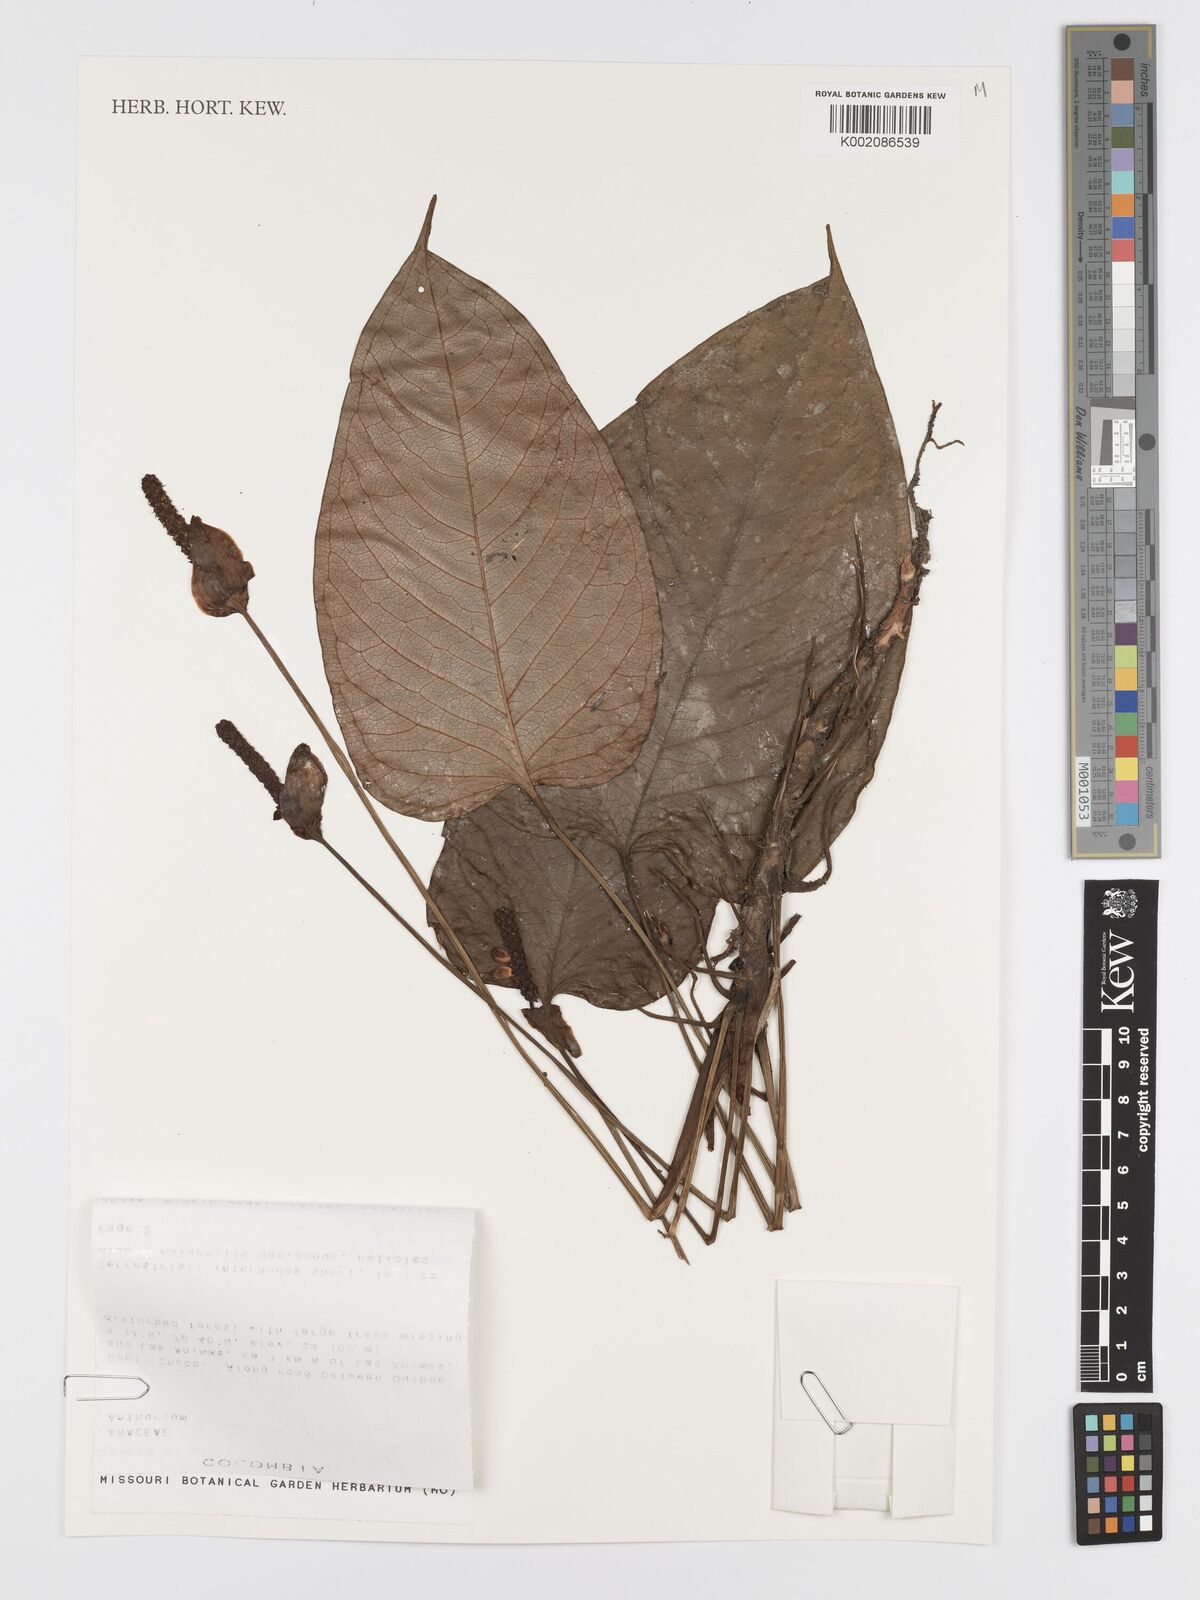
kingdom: Plantae
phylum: Tracheophyta
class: Liliopsida
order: Alismatales
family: Araceae
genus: Anthurium
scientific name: Anthurium monticola
